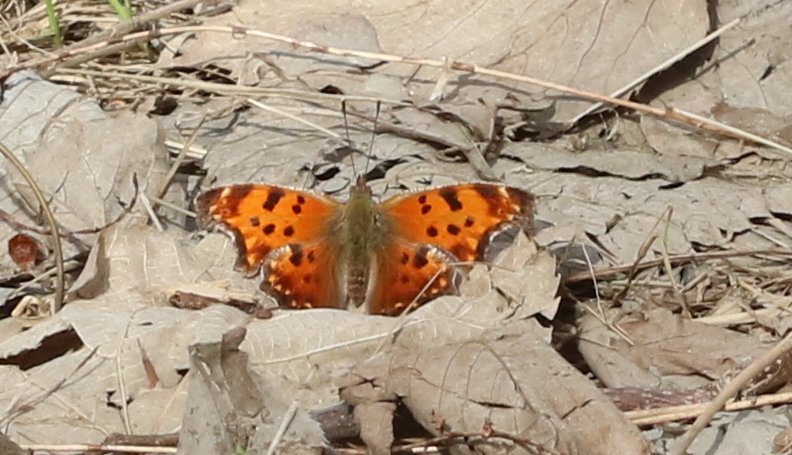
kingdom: Animalia
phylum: Arthropoda
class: Insecta
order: Lepidoptera
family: Nymphalidae
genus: Polygonia
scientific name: Polygonia comma
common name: Eastern Comma
